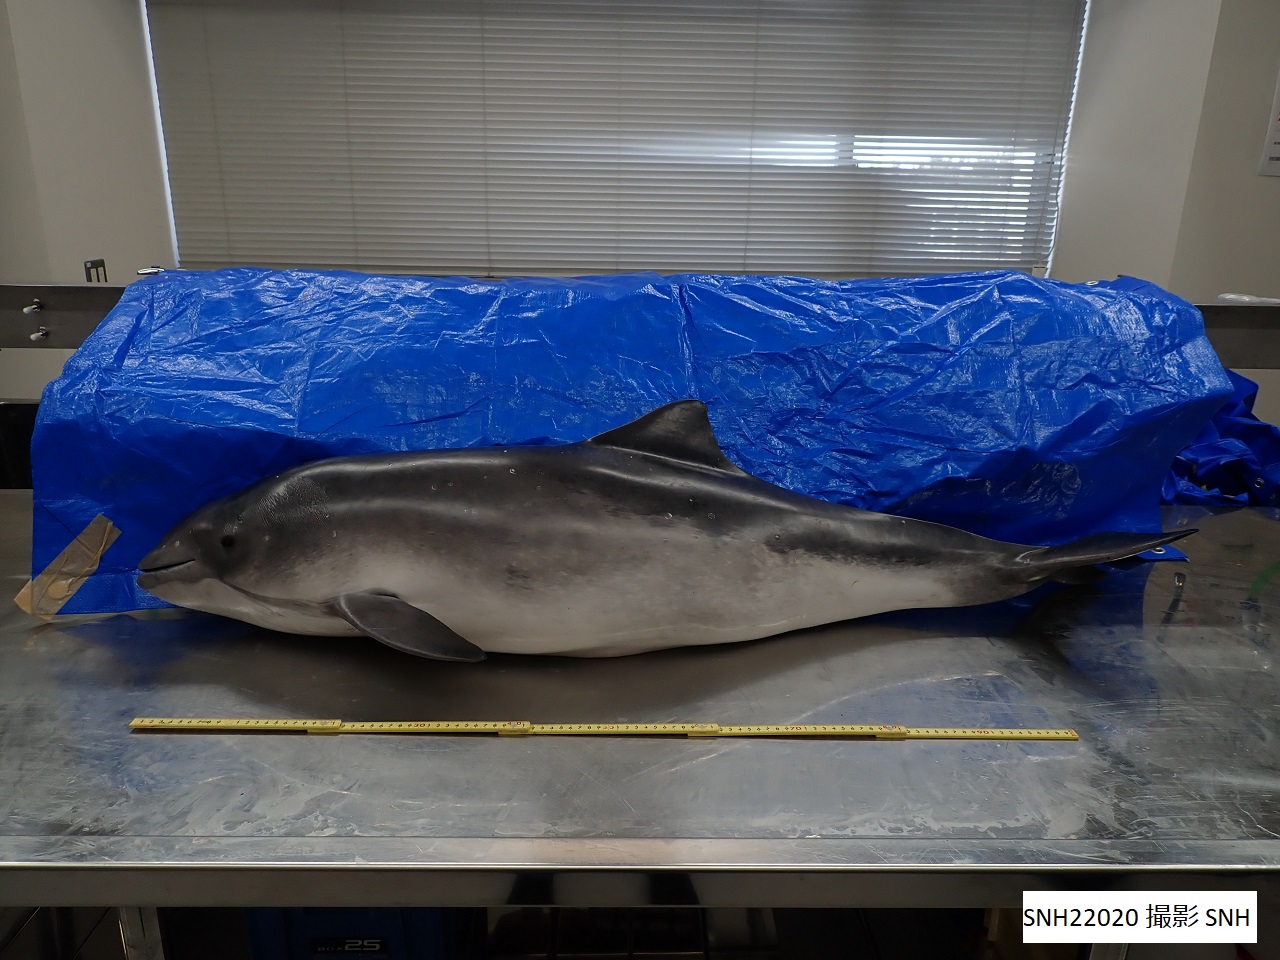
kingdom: Animalia
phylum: Chordata
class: Mammalia
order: Cetacea
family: Phocoenidae
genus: Phocoena
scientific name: Phocoena phocoena
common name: Harbour porpoise
